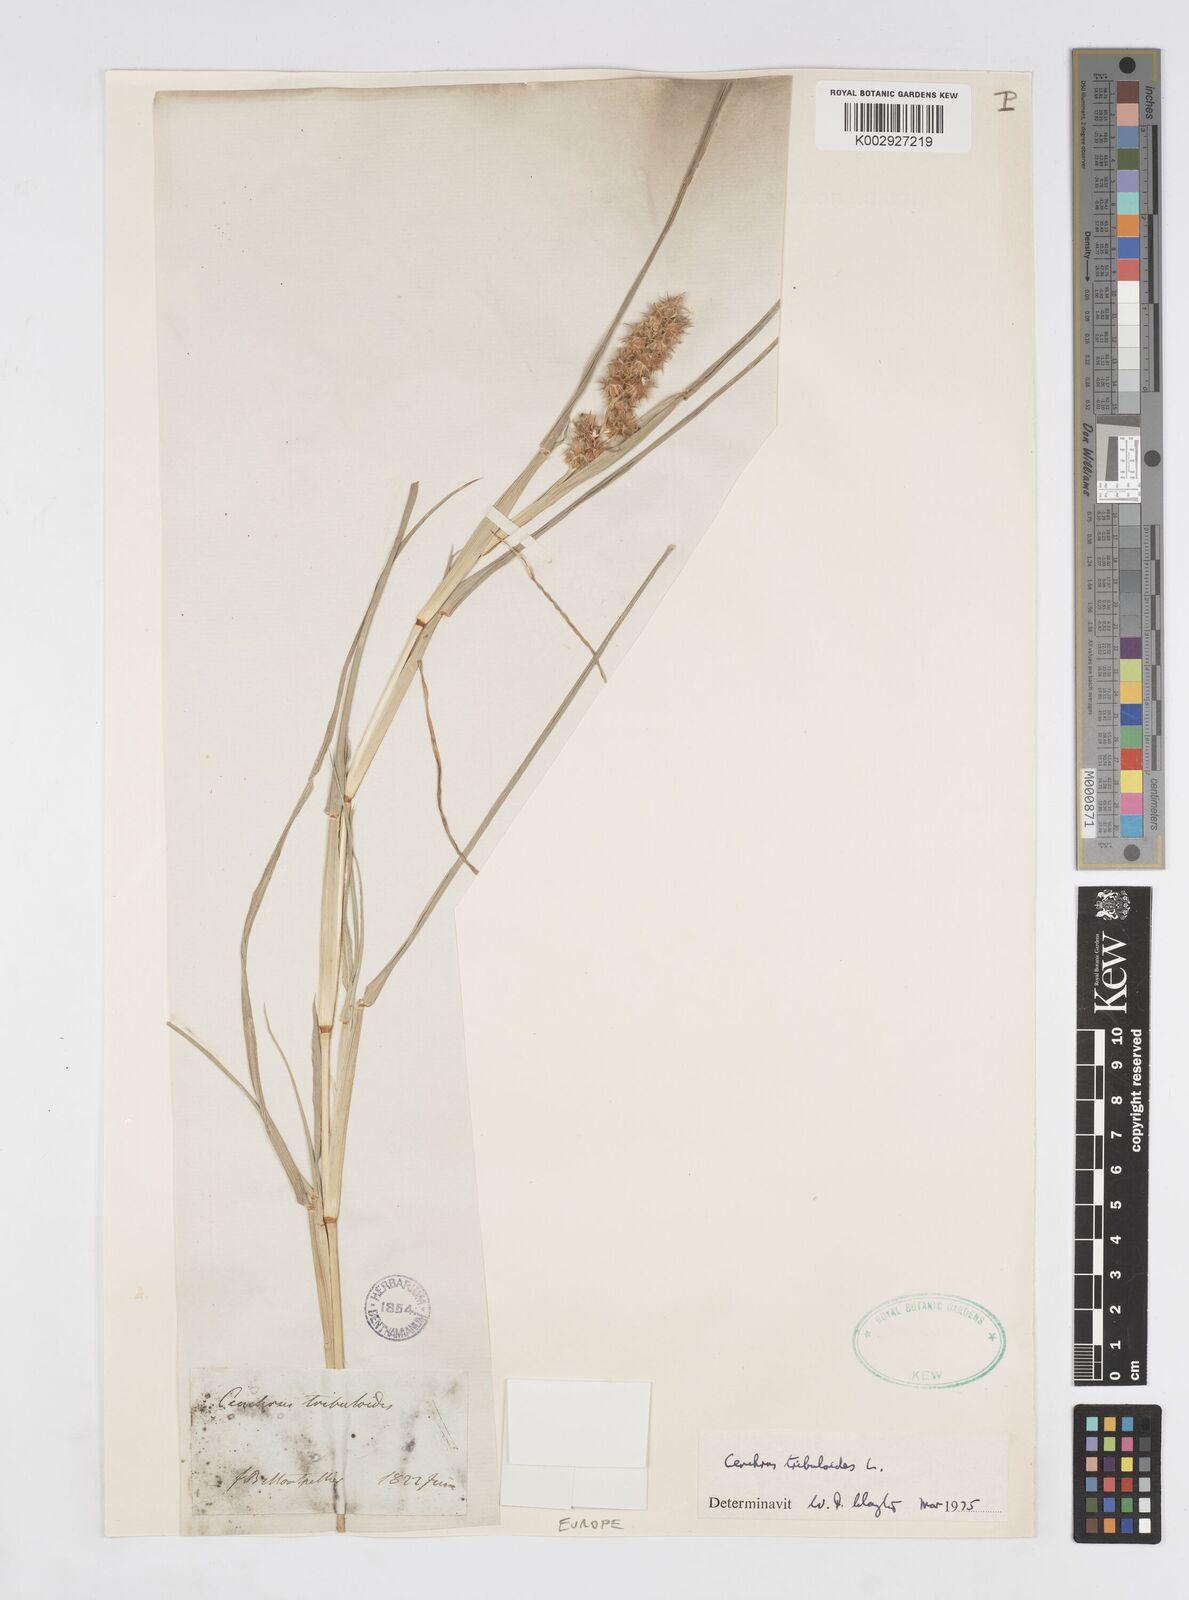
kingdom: Plantae
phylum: Tracheophyta
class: Liliopsida
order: Poales
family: Poaceae
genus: Cenchrus
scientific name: Cenchrus tribuloides
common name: Dune sandbur
